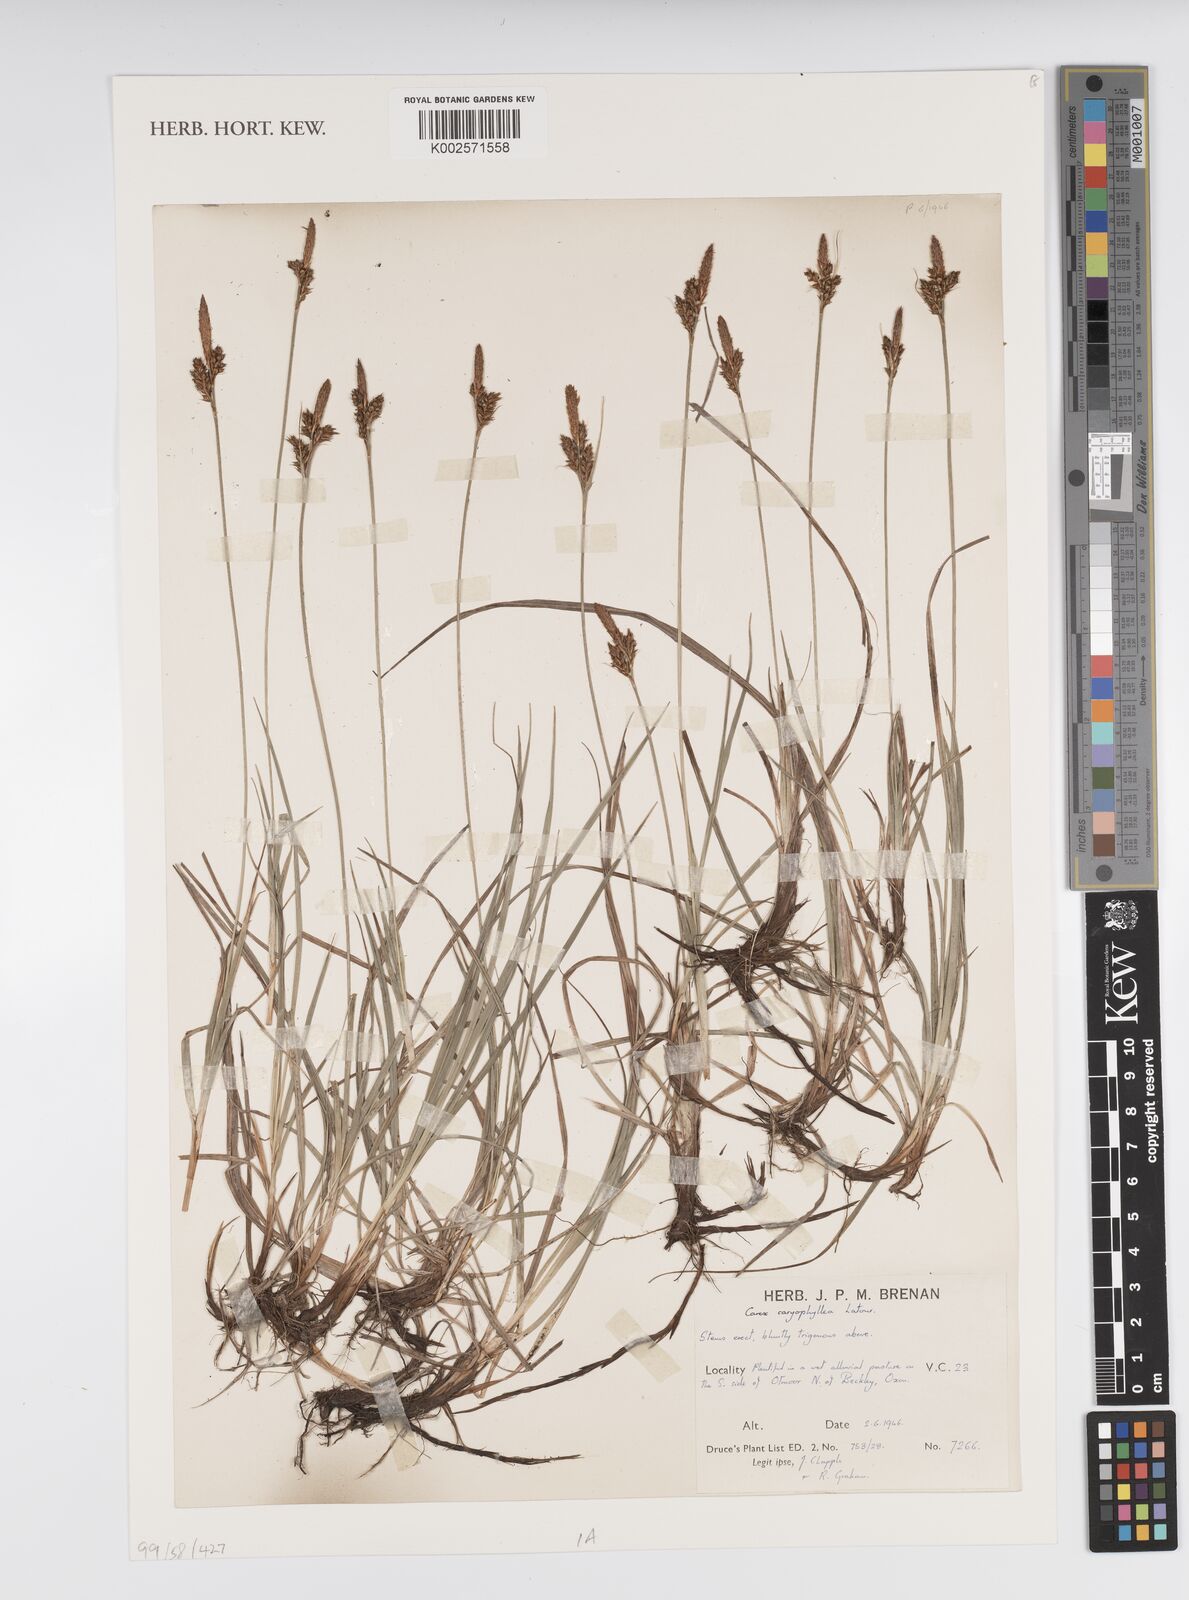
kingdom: Plantae
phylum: Tracheophyta
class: Liliopsida
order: Poales
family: Cyperaceae
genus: Carex
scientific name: Carex caryophyllea
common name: Spring sedge
